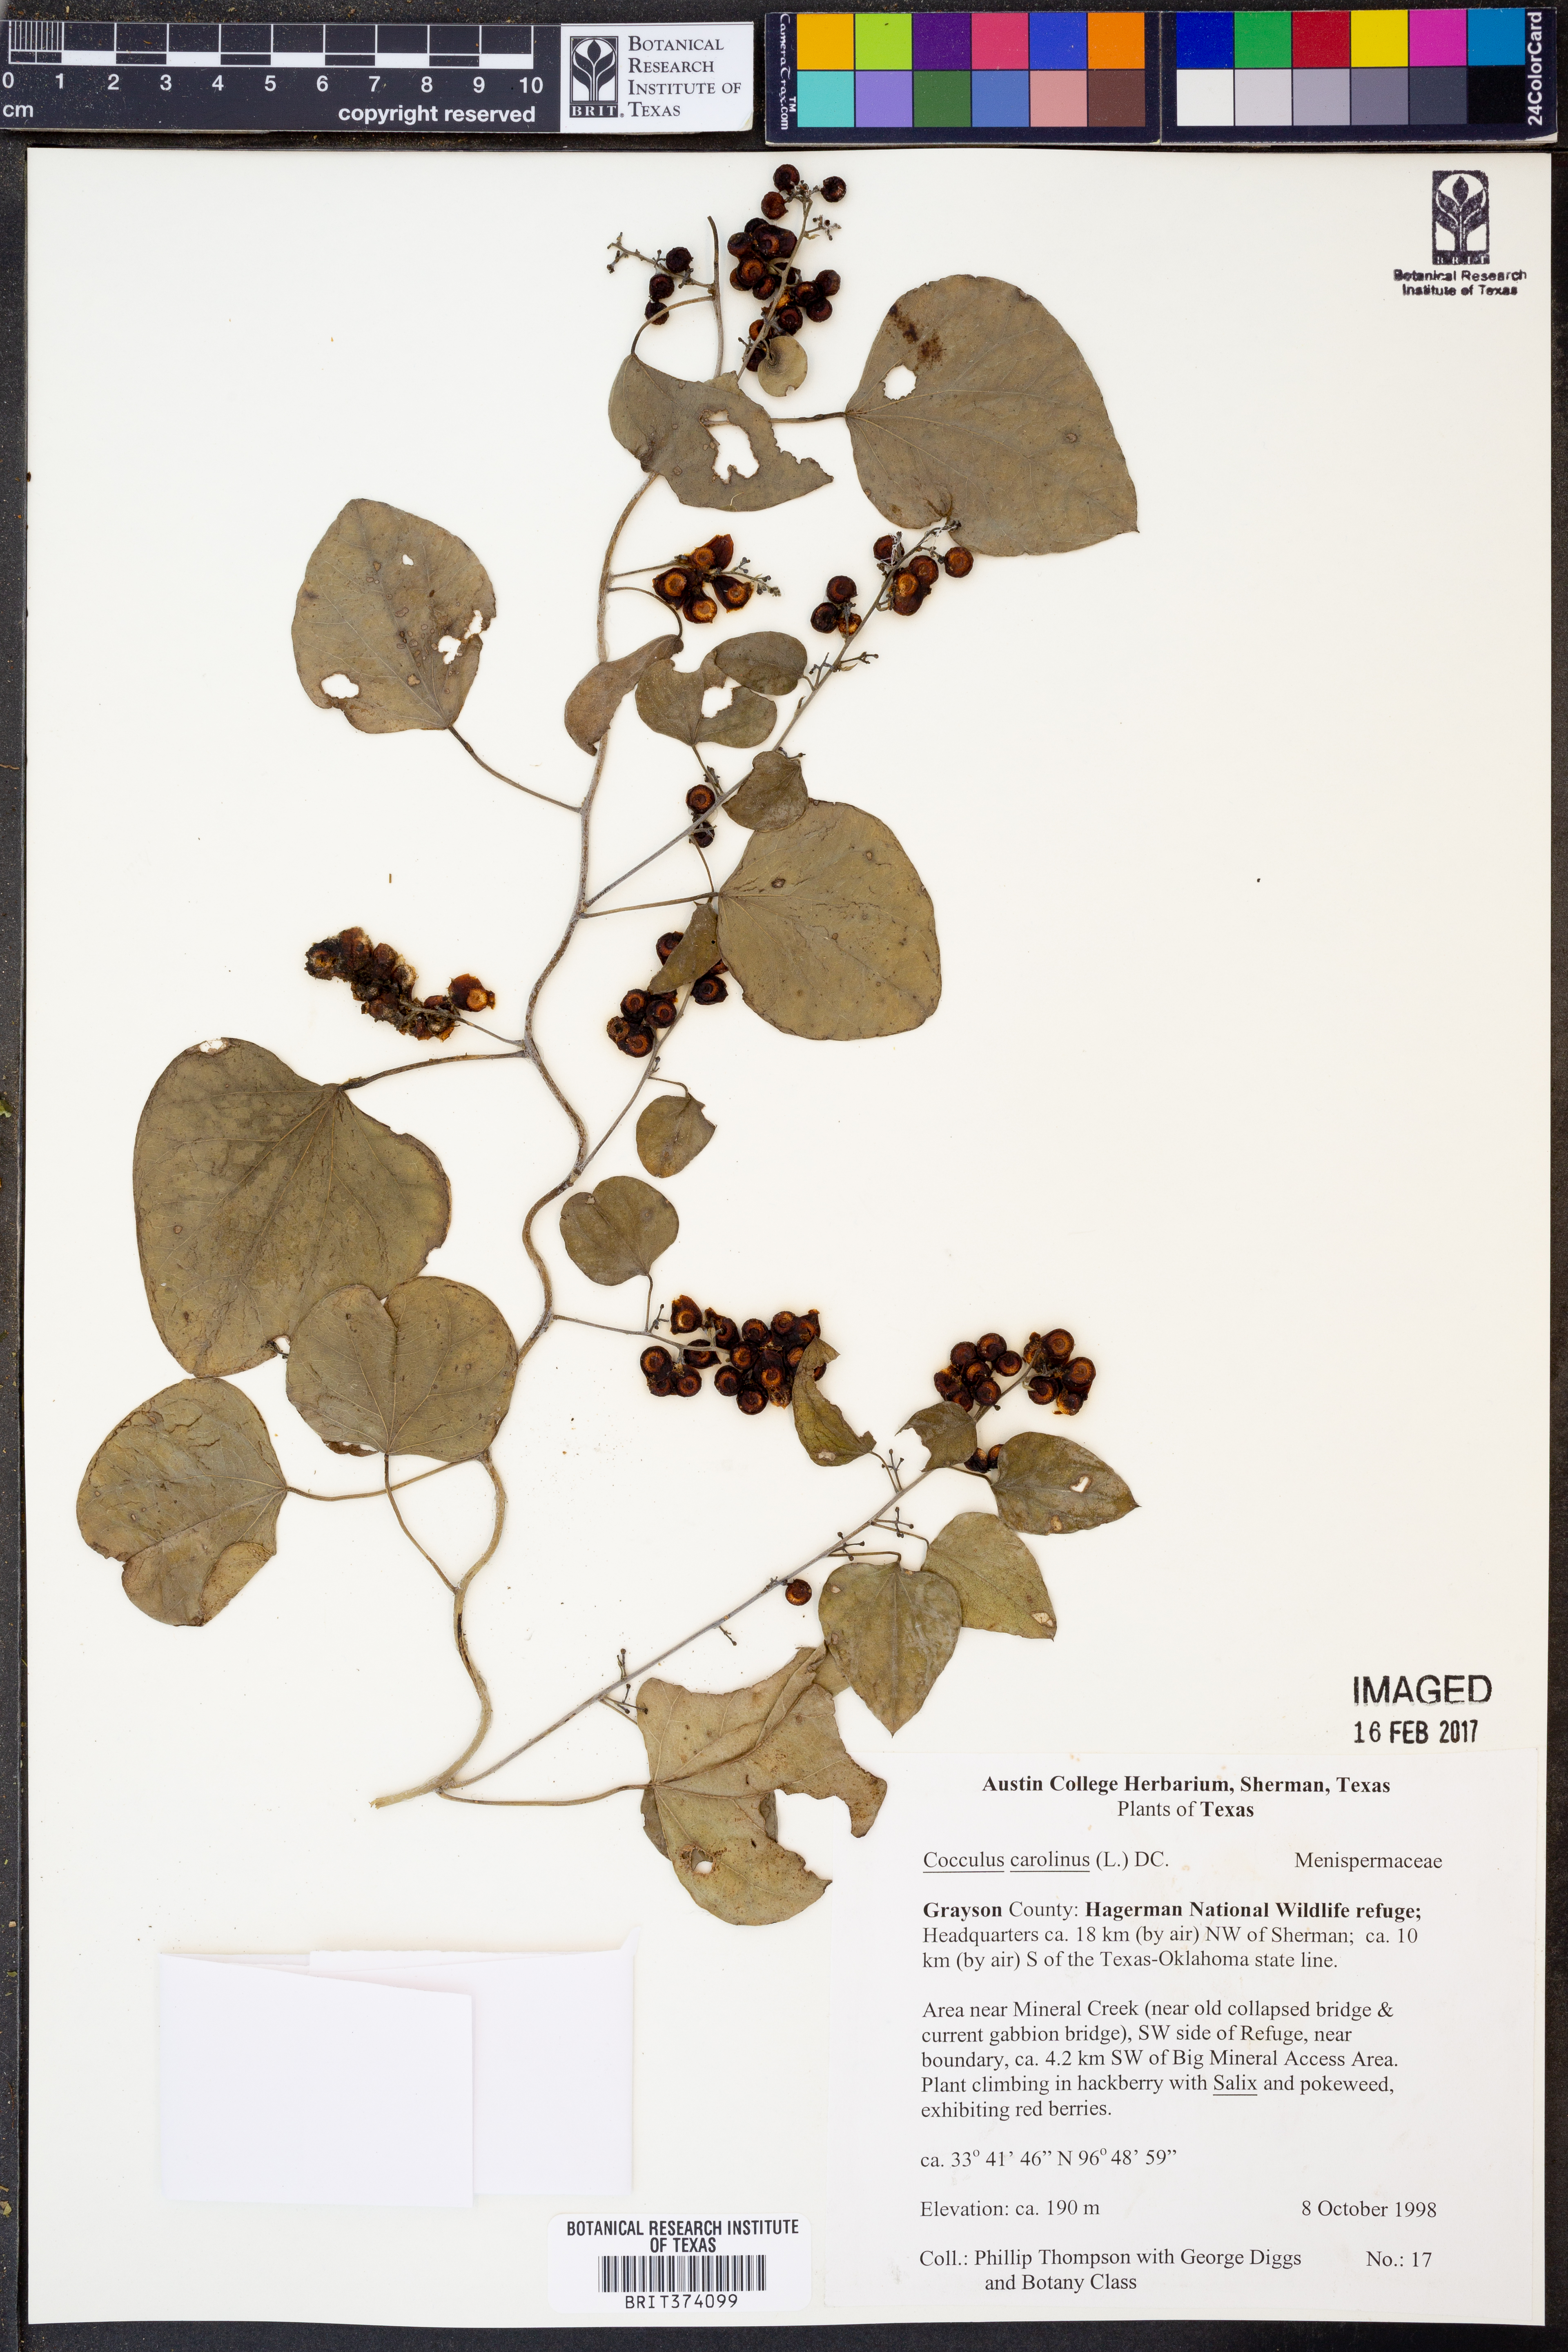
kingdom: Plantae
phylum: Tracheophyta
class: Magnoliopsida
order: Ranunculales
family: Menispermaceae
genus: Cocculus
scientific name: Cocculus carolinus
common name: Carolina moonseed
